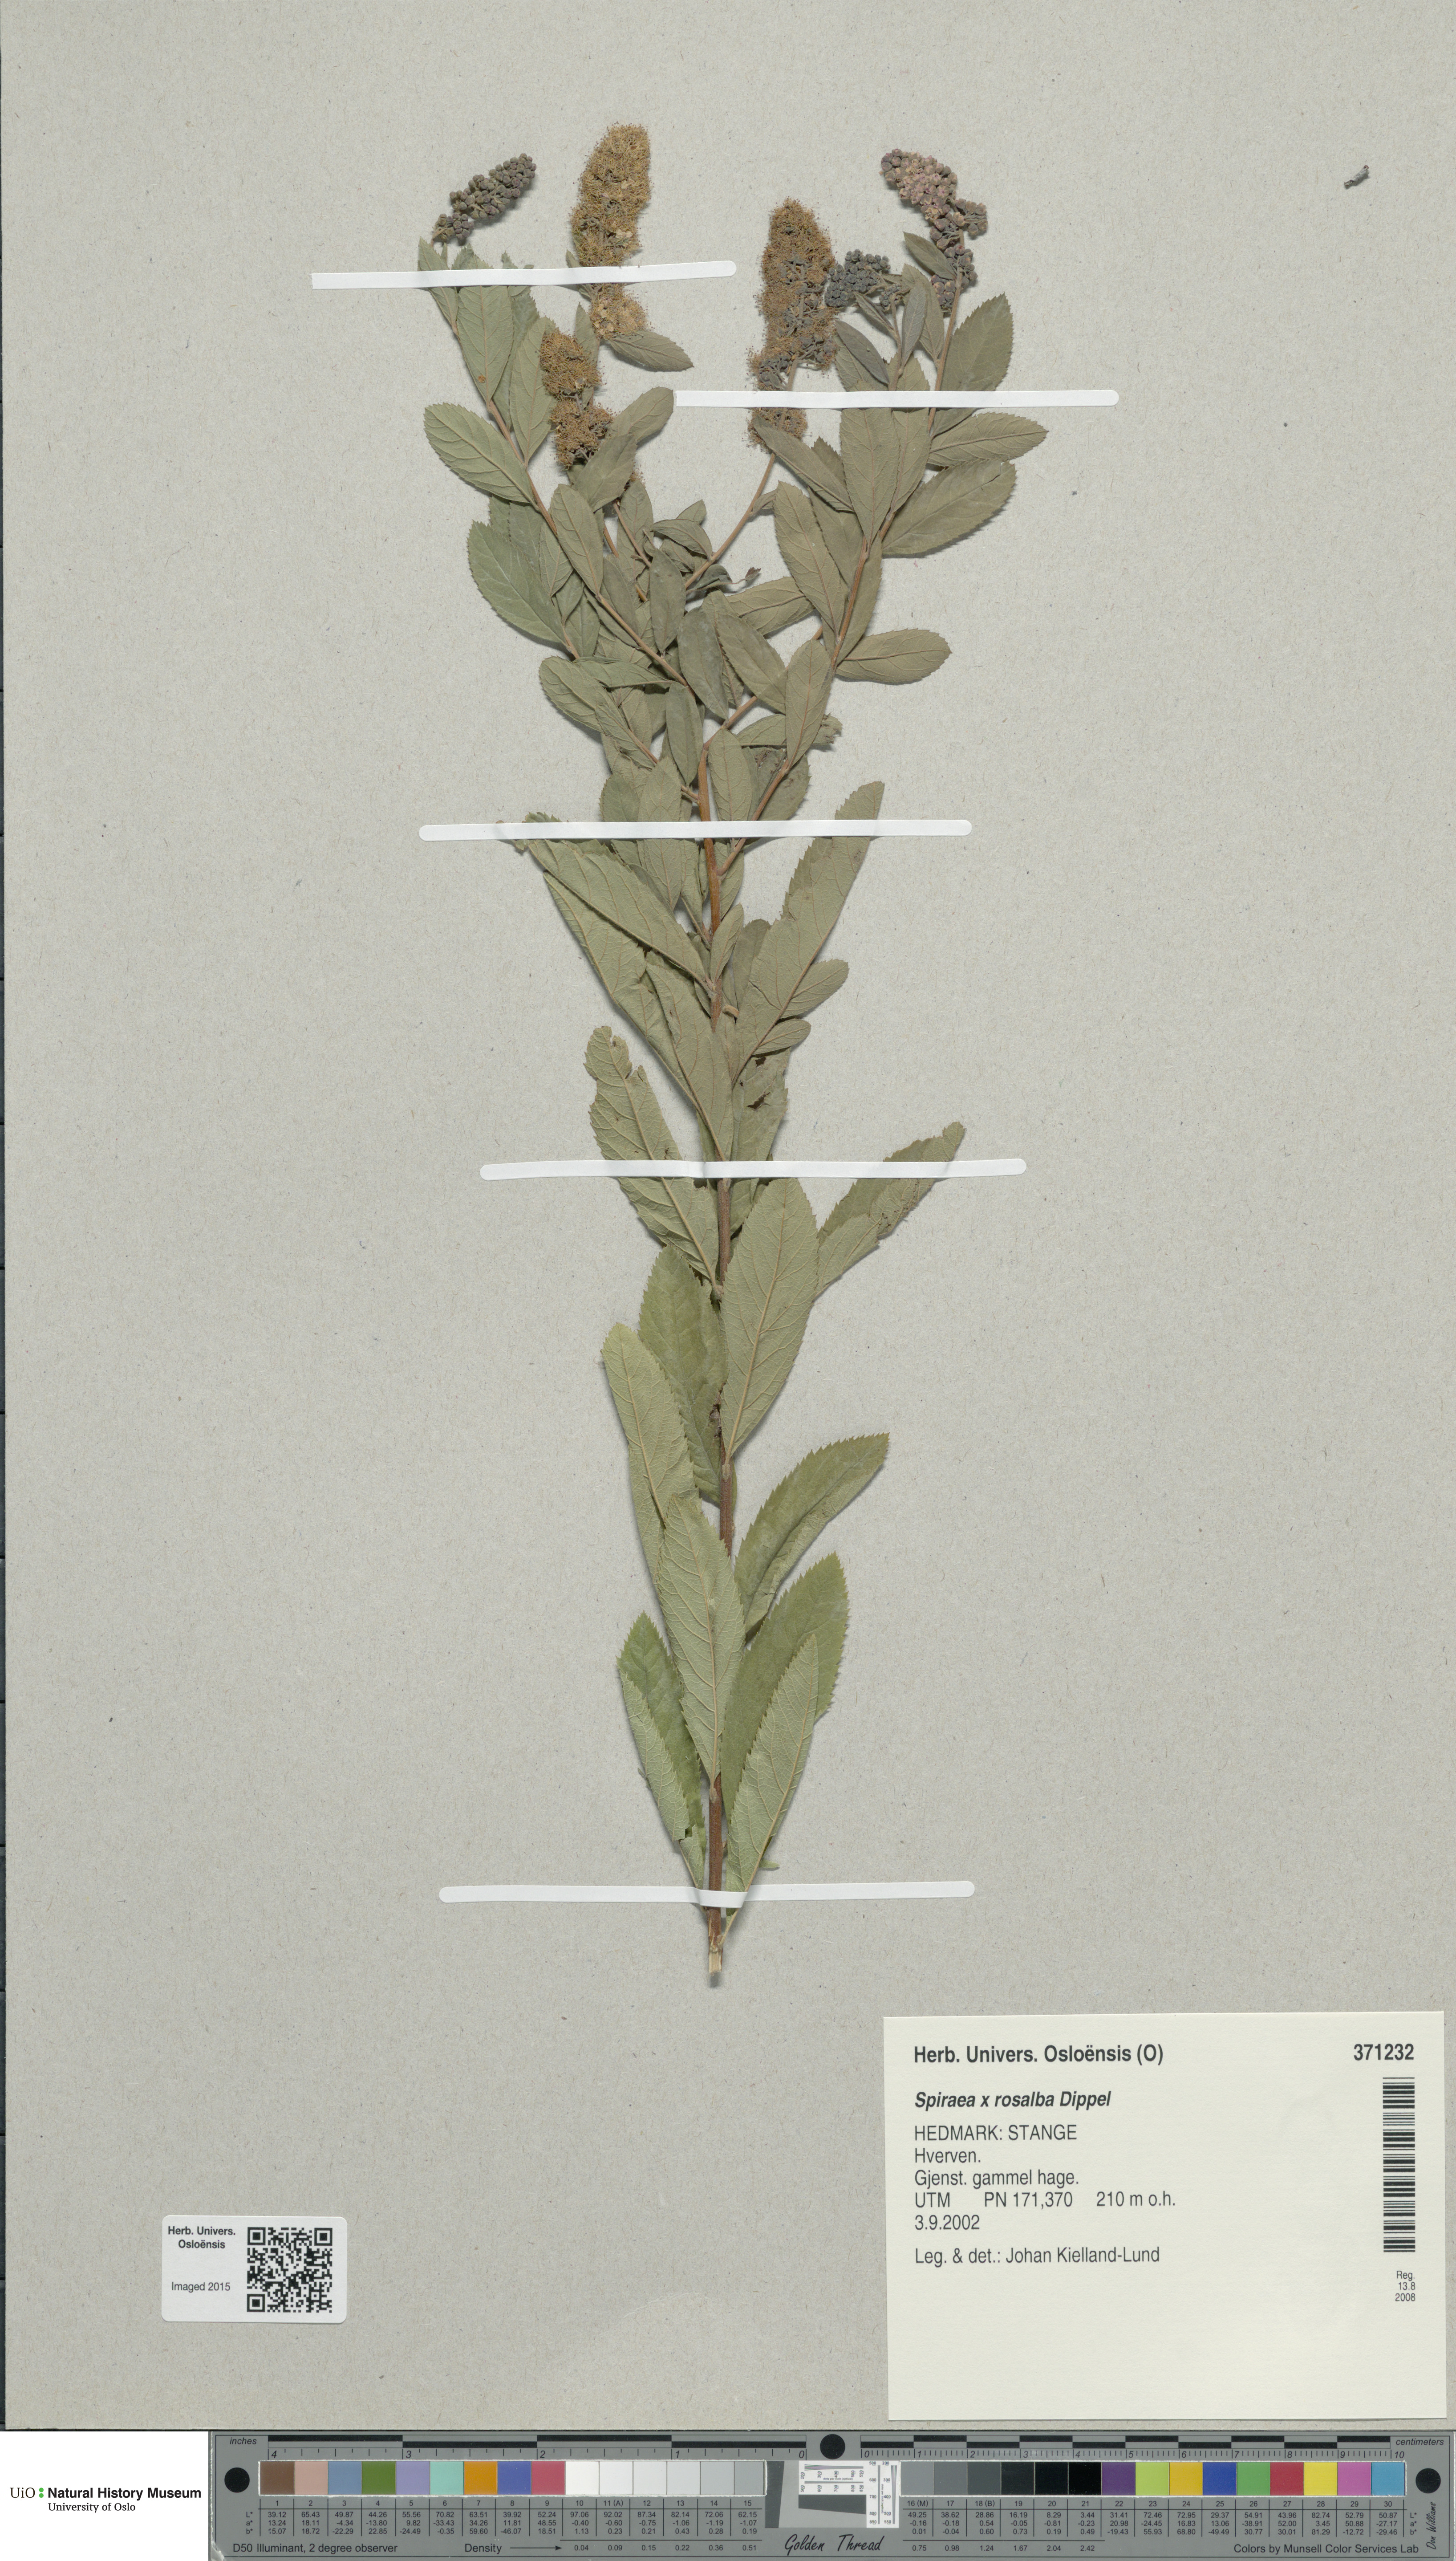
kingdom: Plantae
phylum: Tracheophyta
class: Magnoliopsida
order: Rosales
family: Rosaceae
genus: Spiraea
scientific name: Spiraea rosalba
